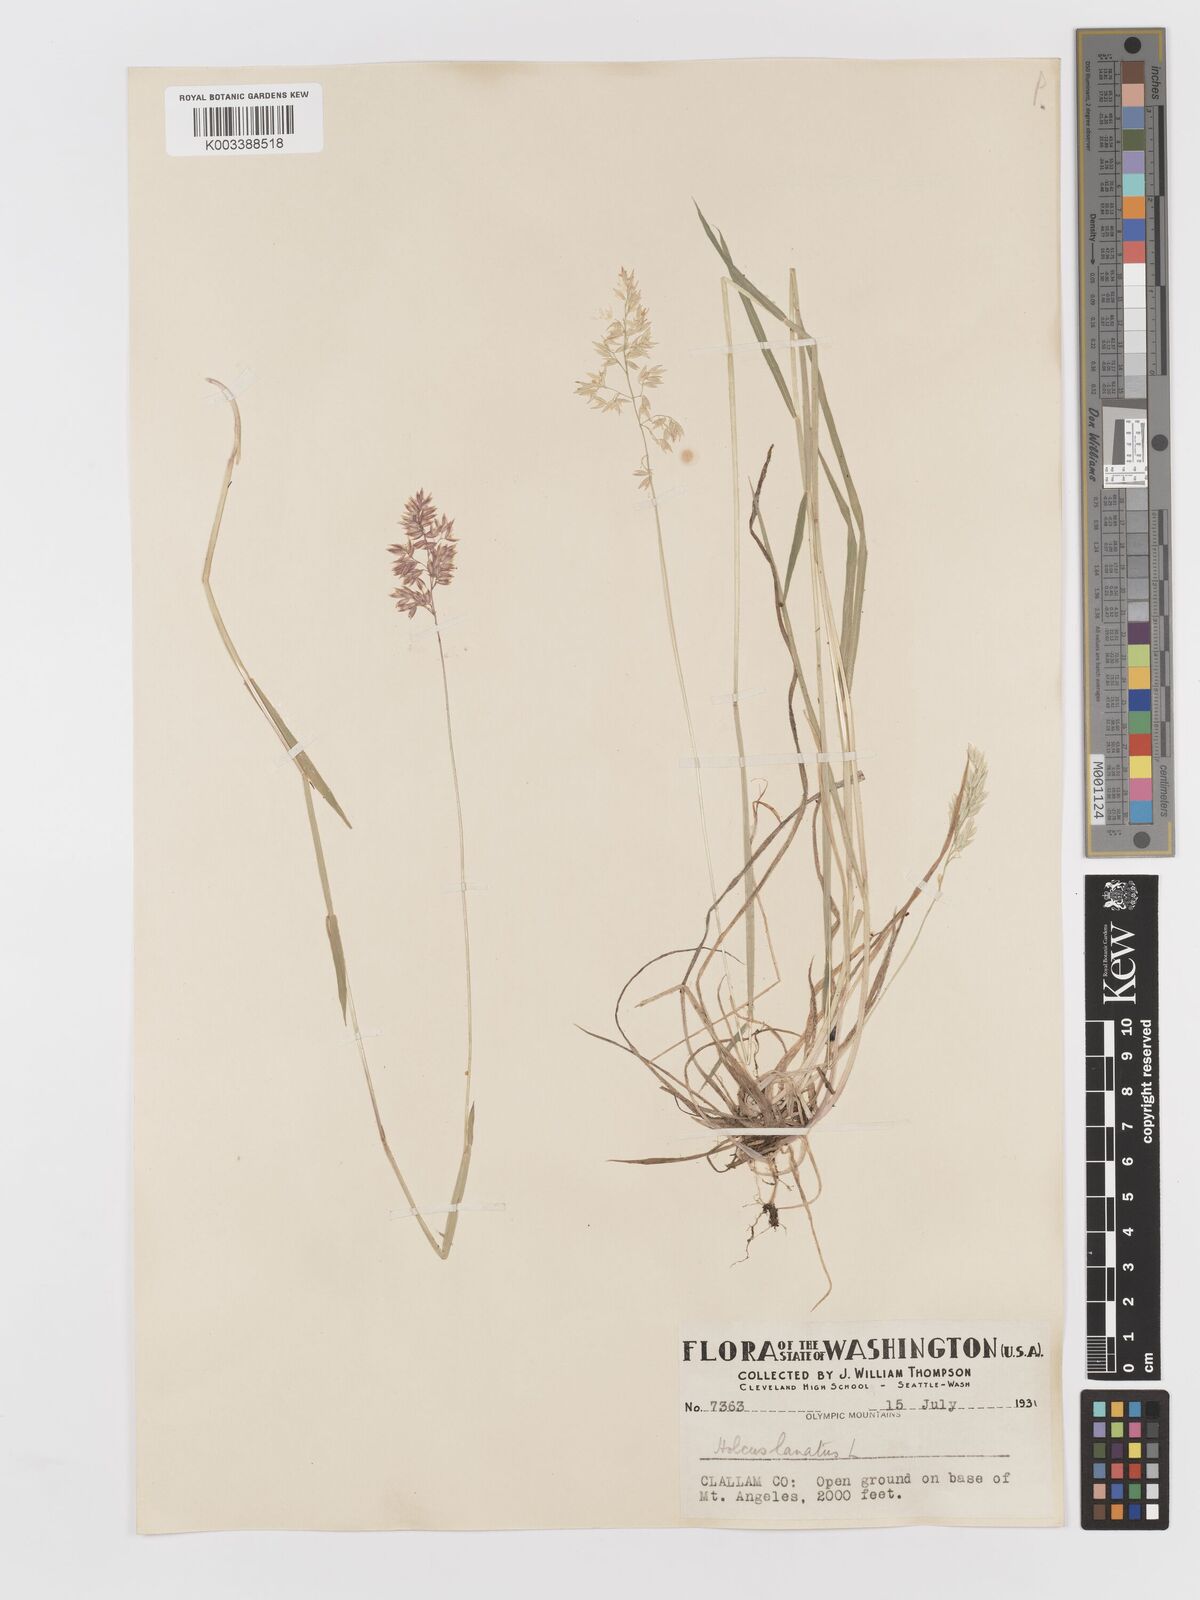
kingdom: Plantae
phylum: Tracheophyta
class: Liliopsida
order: Poales
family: Poaceae
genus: Holcus
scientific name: Holcus lanatus
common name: Yorkshire-fog
